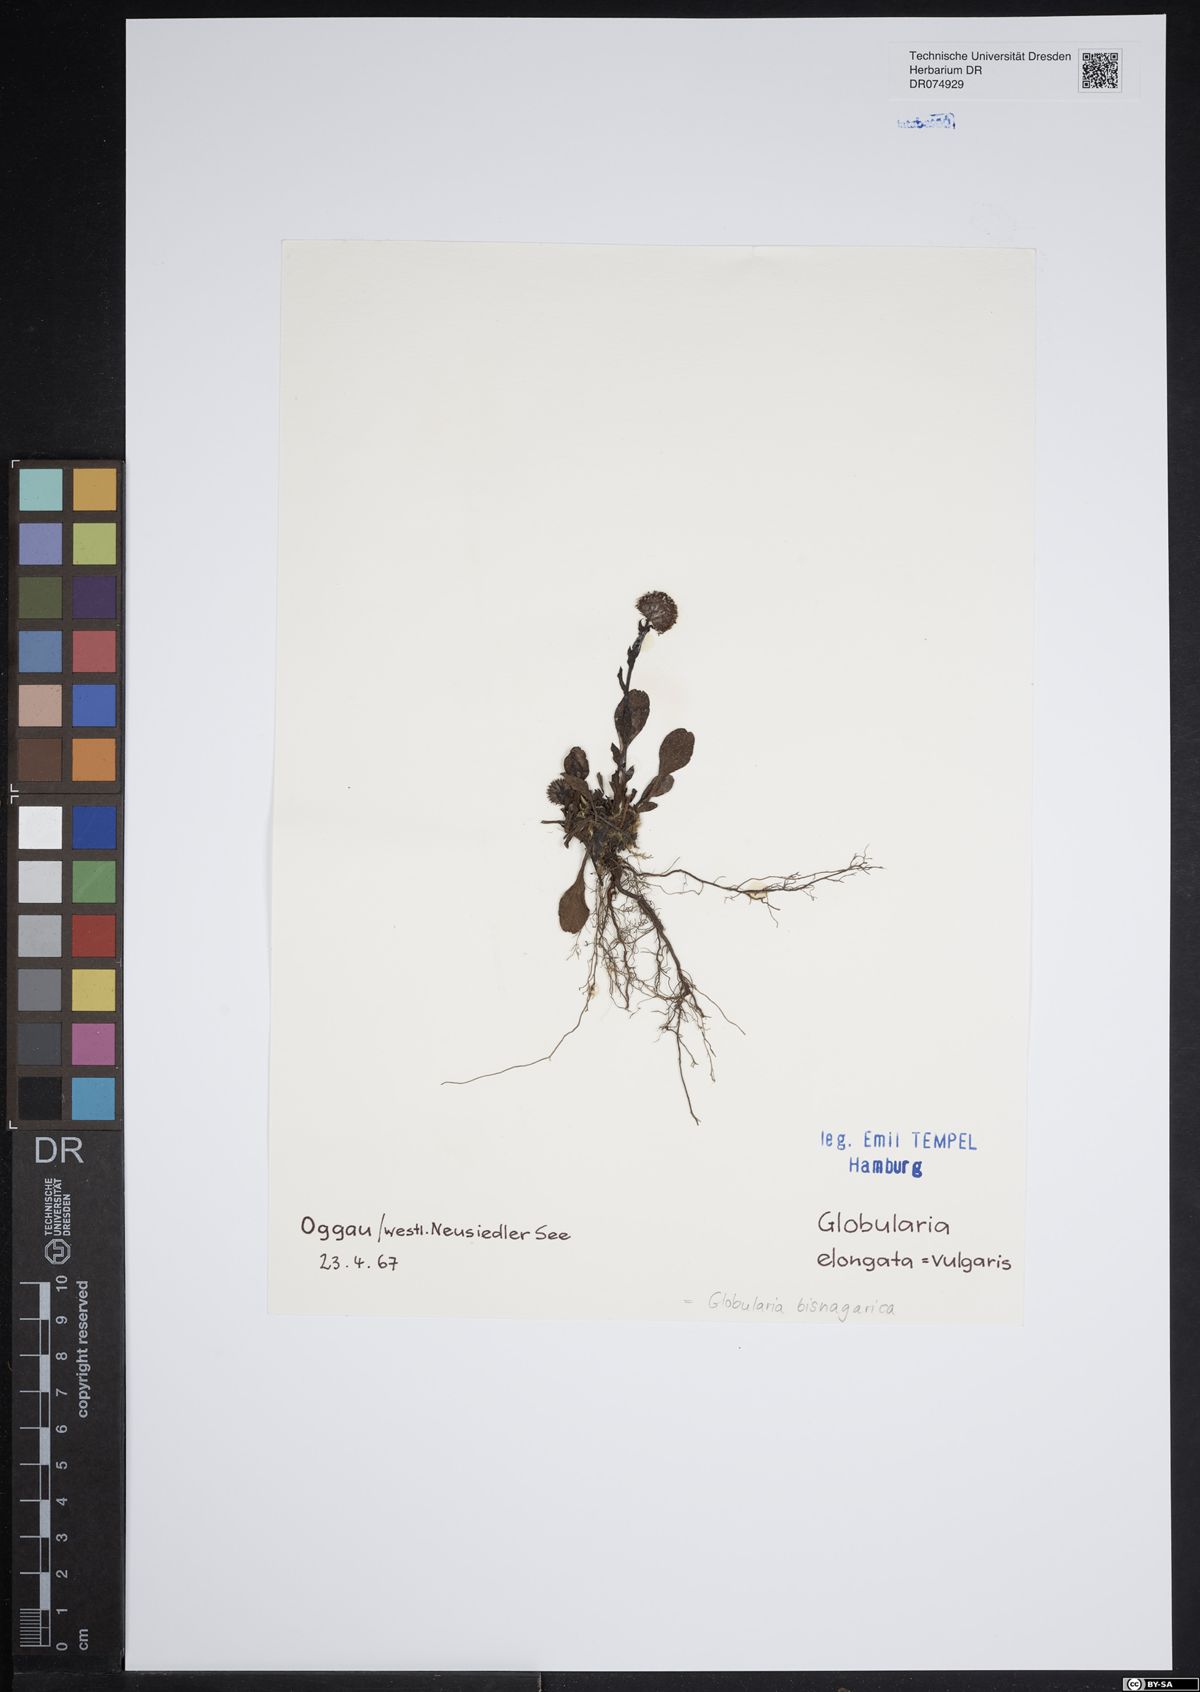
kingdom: Plantae
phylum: Tracheophyta
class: Magnoliopsida
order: Lamiales
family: Plantaginaceae
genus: Globularia
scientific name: Globularia bisnagarica
